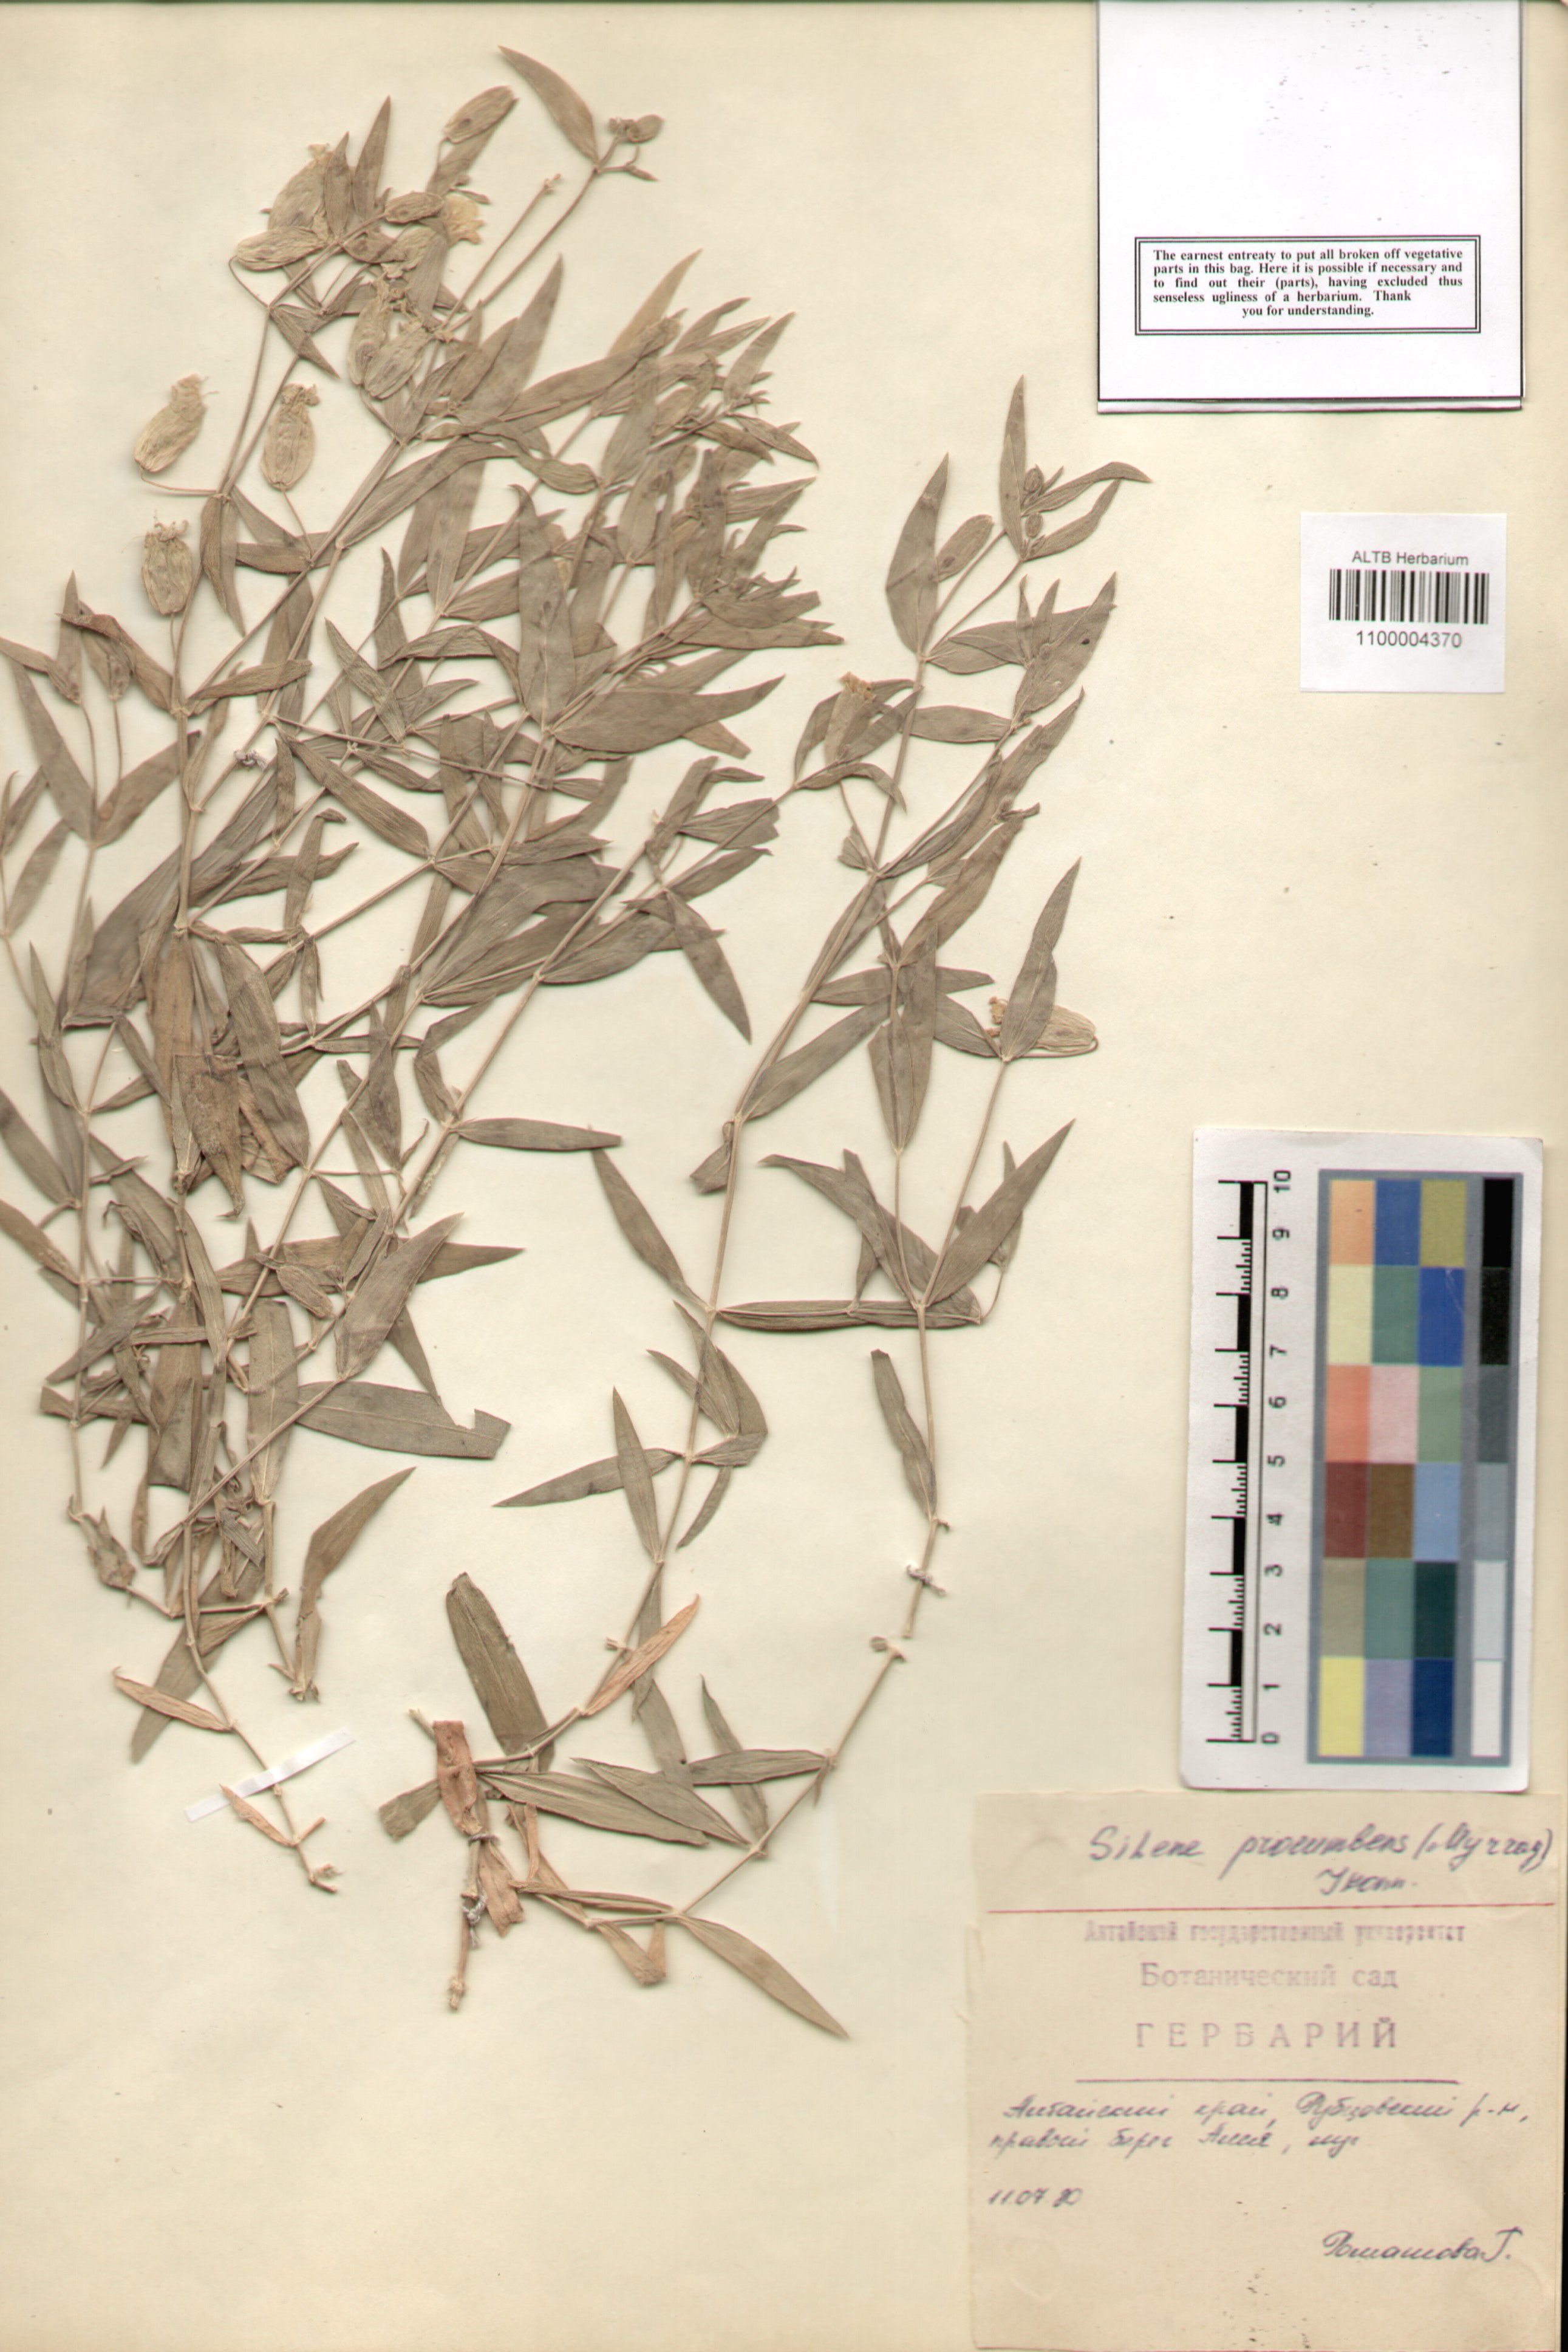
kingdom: Plantae
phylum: Tracheophyta
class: Magnoliopsida
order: Caryophyllales
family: Caryophyllaceae
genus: Silene
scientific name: Silene procumbens
